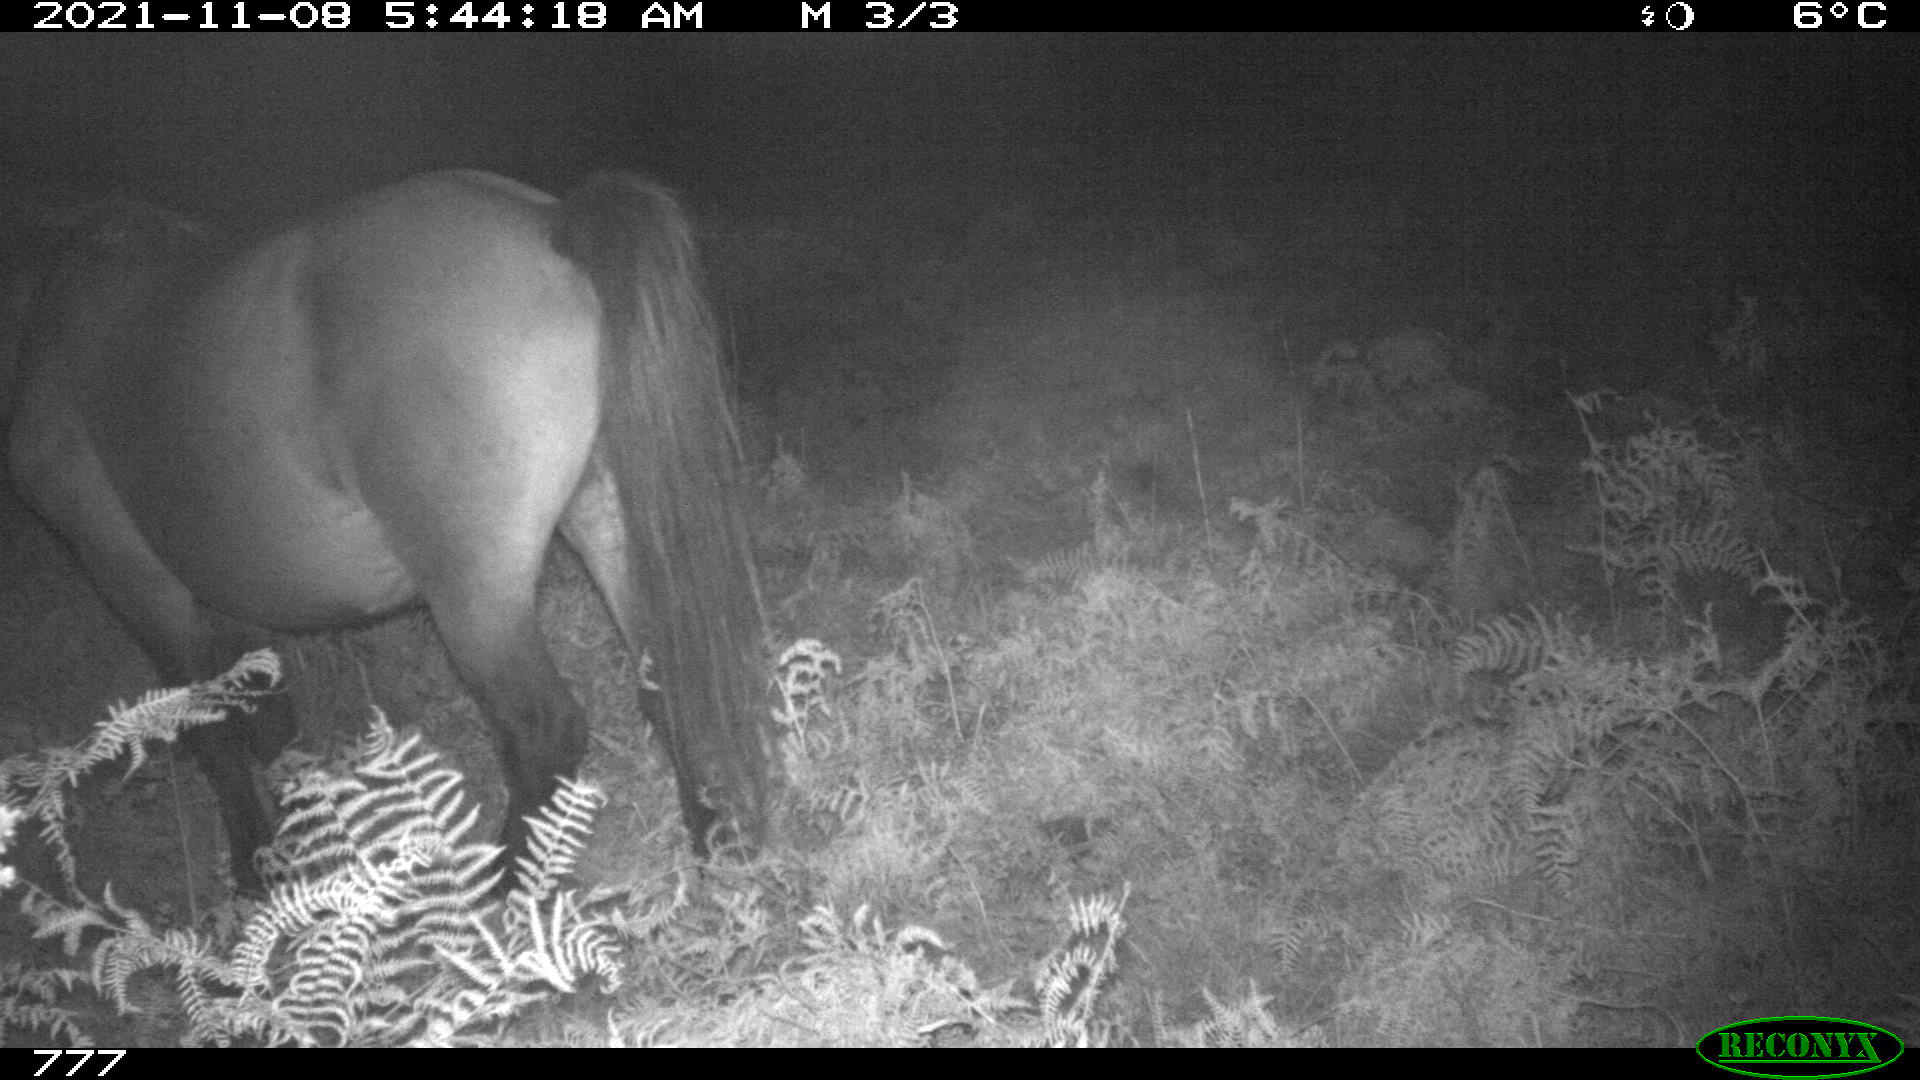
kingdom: Animalia
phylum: Chordata
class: Mammalia
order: Perissodactyla
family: Equidae
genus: Equus
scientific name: Equus caballus
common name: Horse
